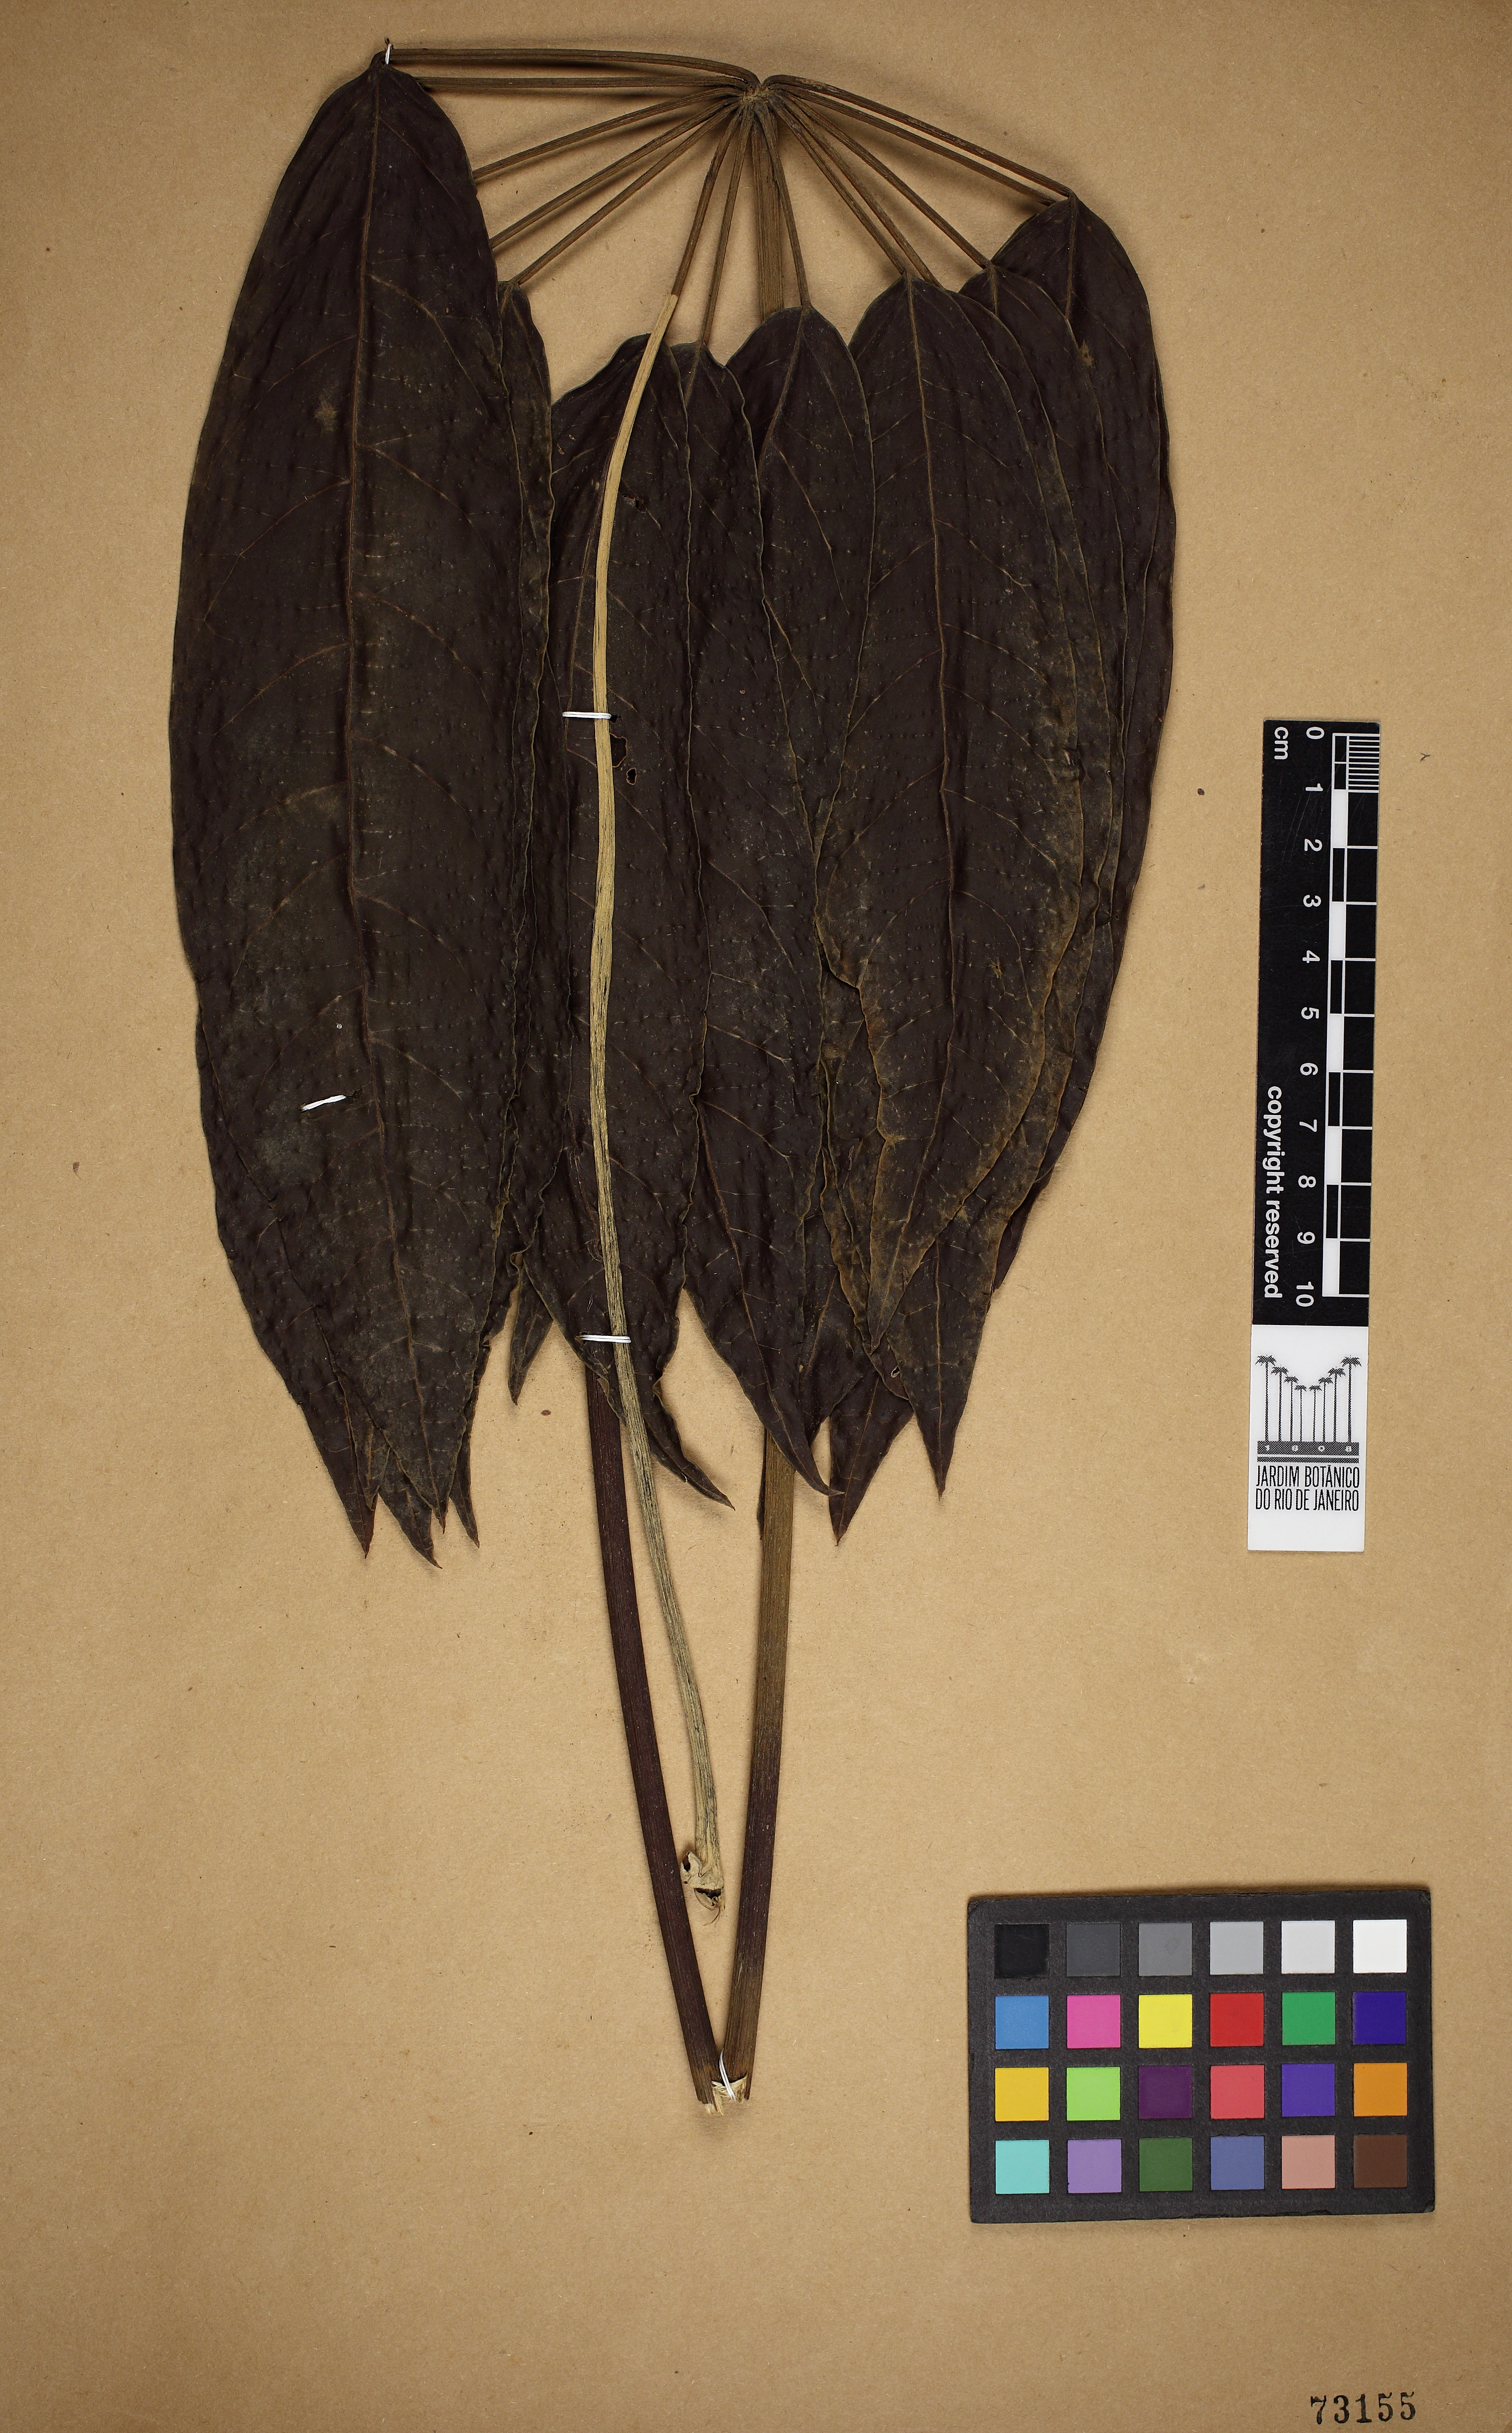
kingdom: Plantae
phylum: Tracheophyta
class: Magnoliopsida
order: Apiales
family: Araliaceae
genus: Didymopanax
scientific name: Didymopanax
